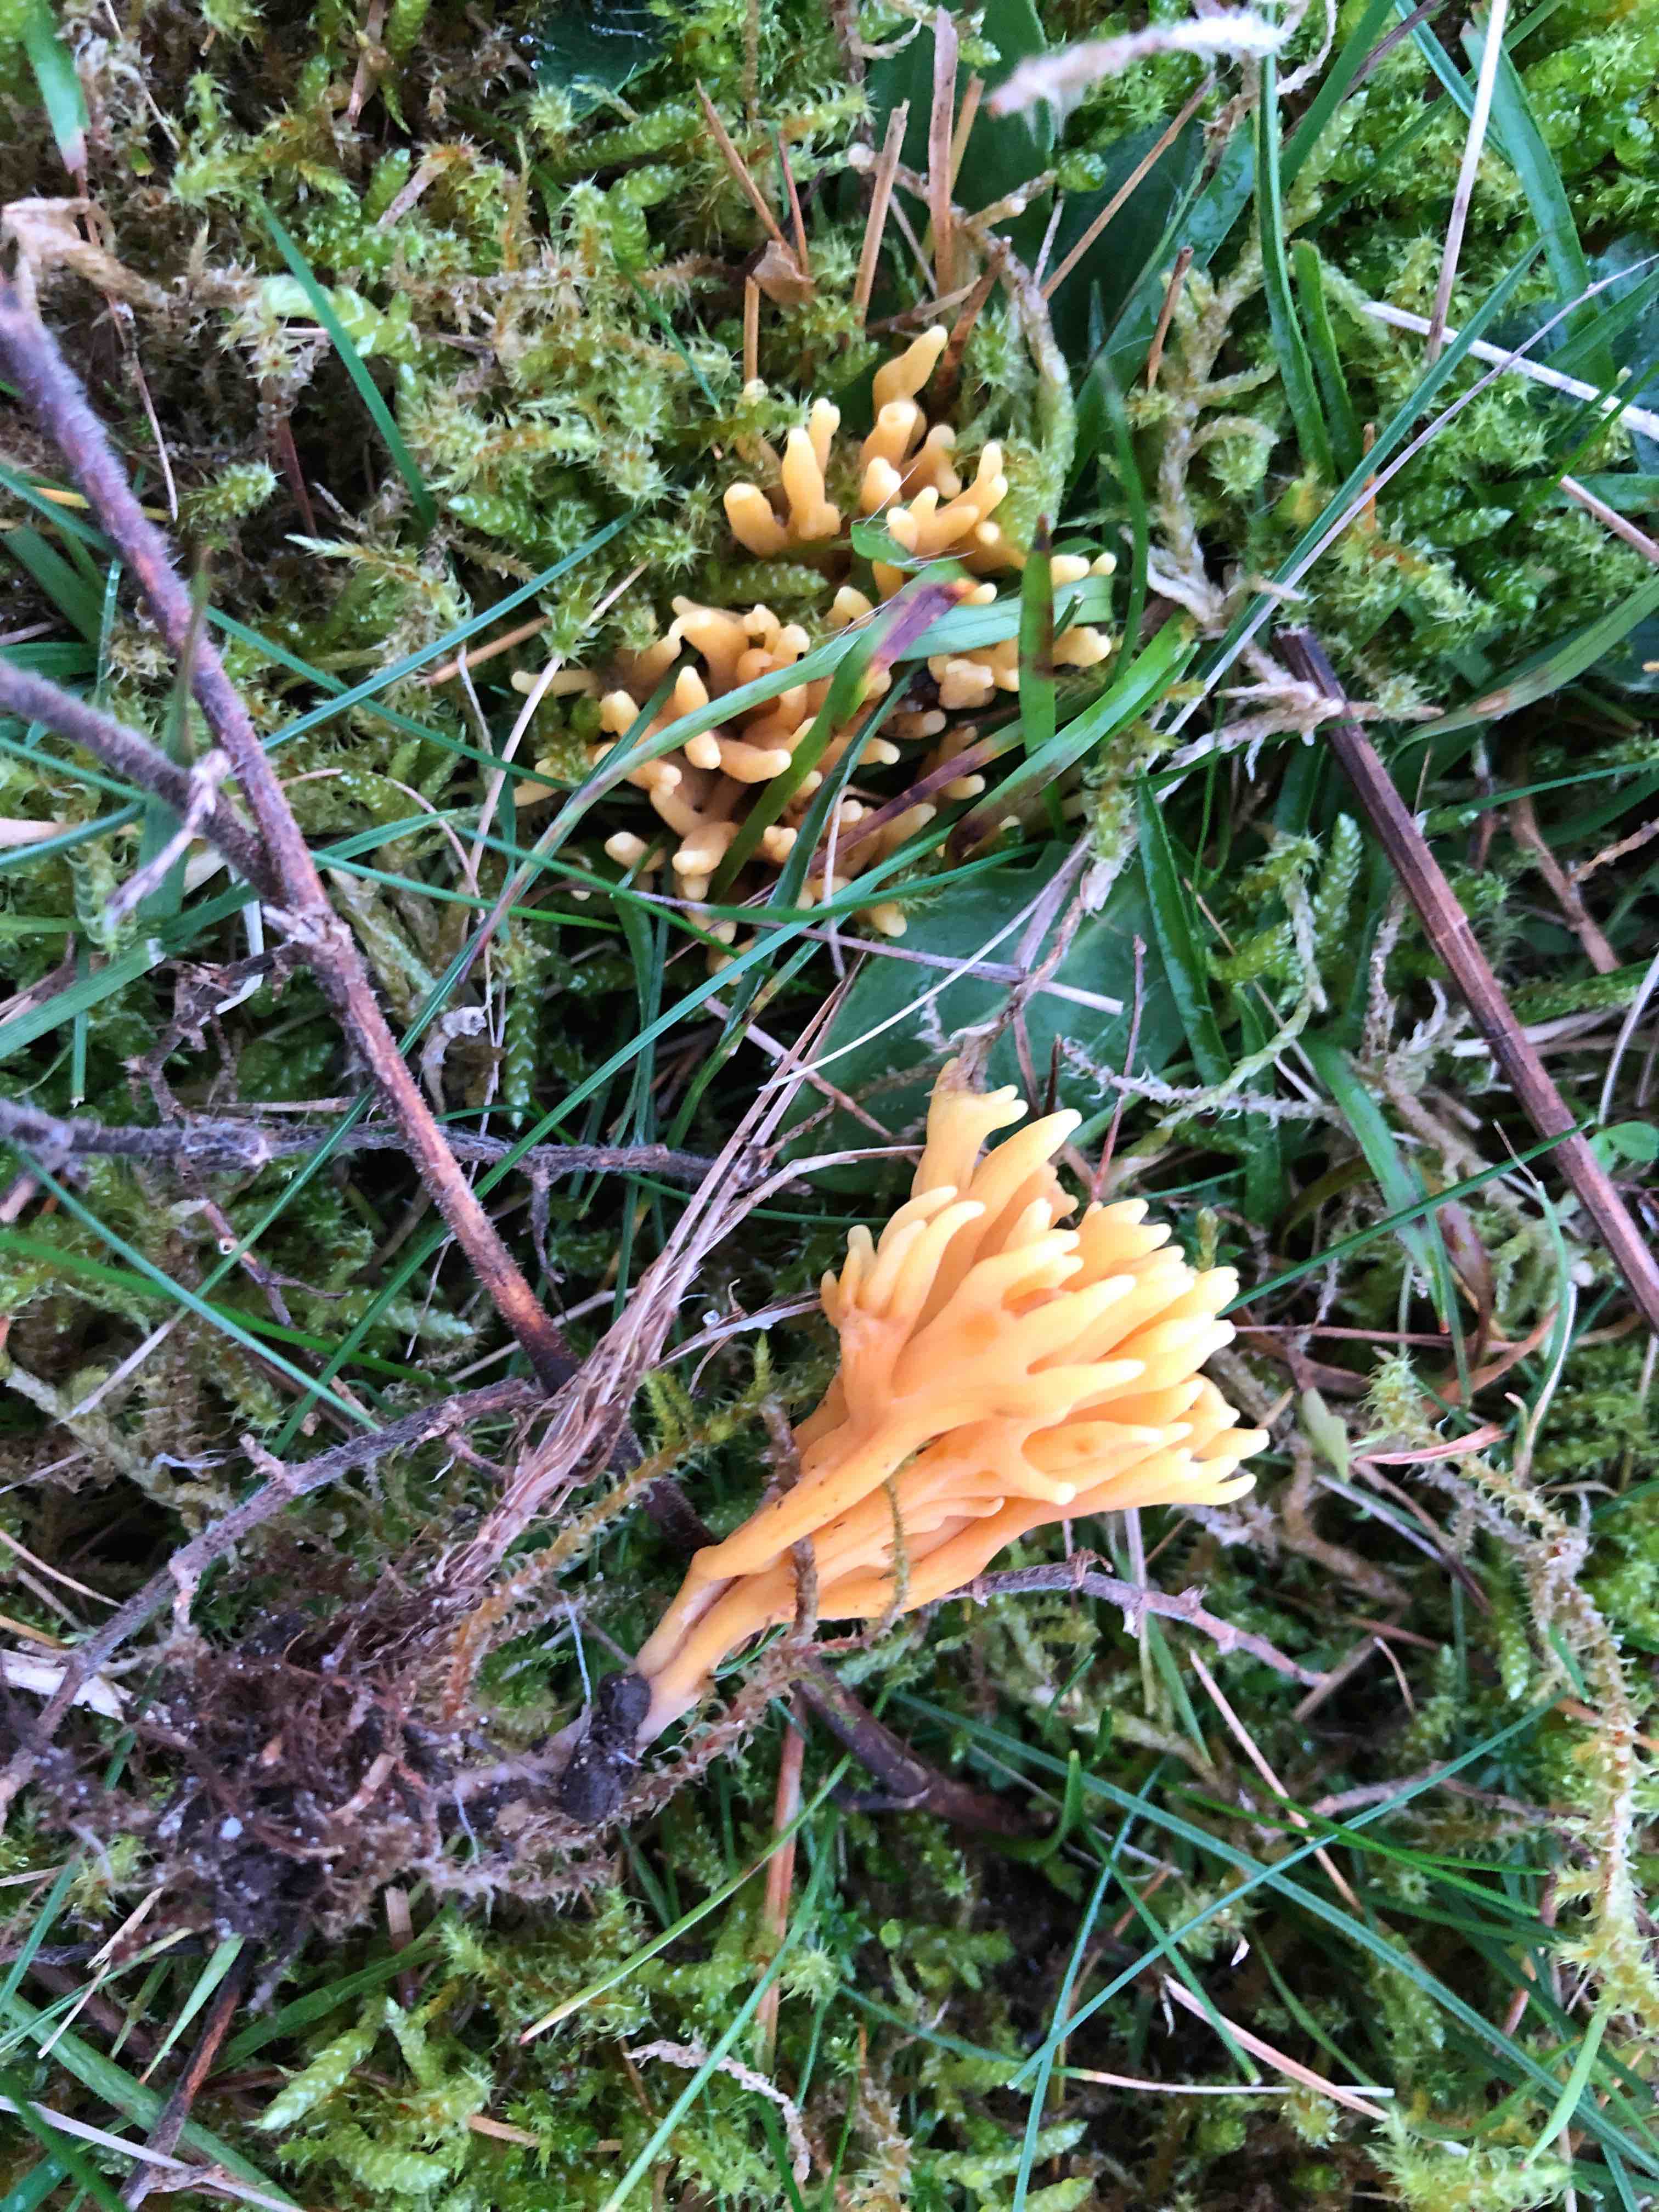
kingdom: Fungi
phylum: Basidiomycota
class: Agaricomycetes
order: Agaricales
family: Clavariaceae
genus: Clavulinopsis
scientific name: Clavulinopsis corniculata
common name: eng-køllesvamp
